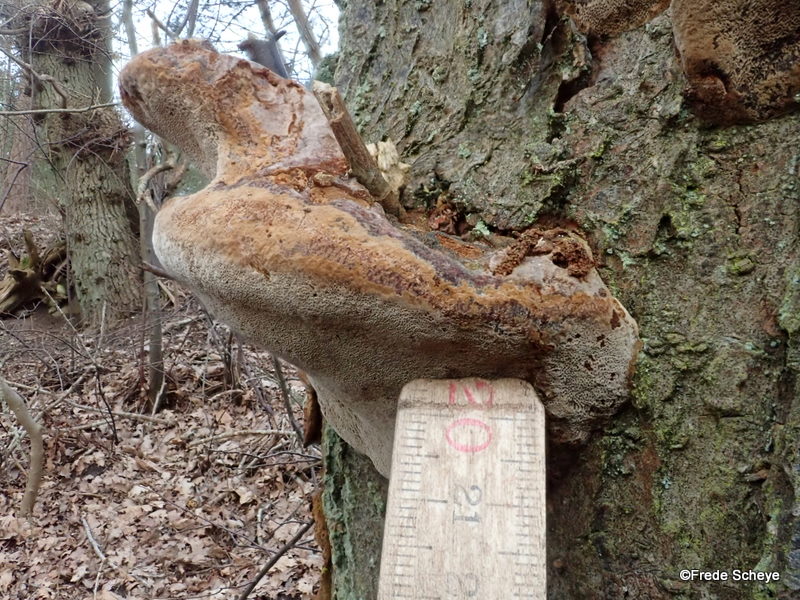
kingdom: Fungi
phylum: Basidiomycota
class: Agaricomycetes
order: Hymenochaetales
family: Hymenochaetaceae
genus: Phellinus
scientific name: Phellinus pomaceus
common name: blomme-ildporesvamp
